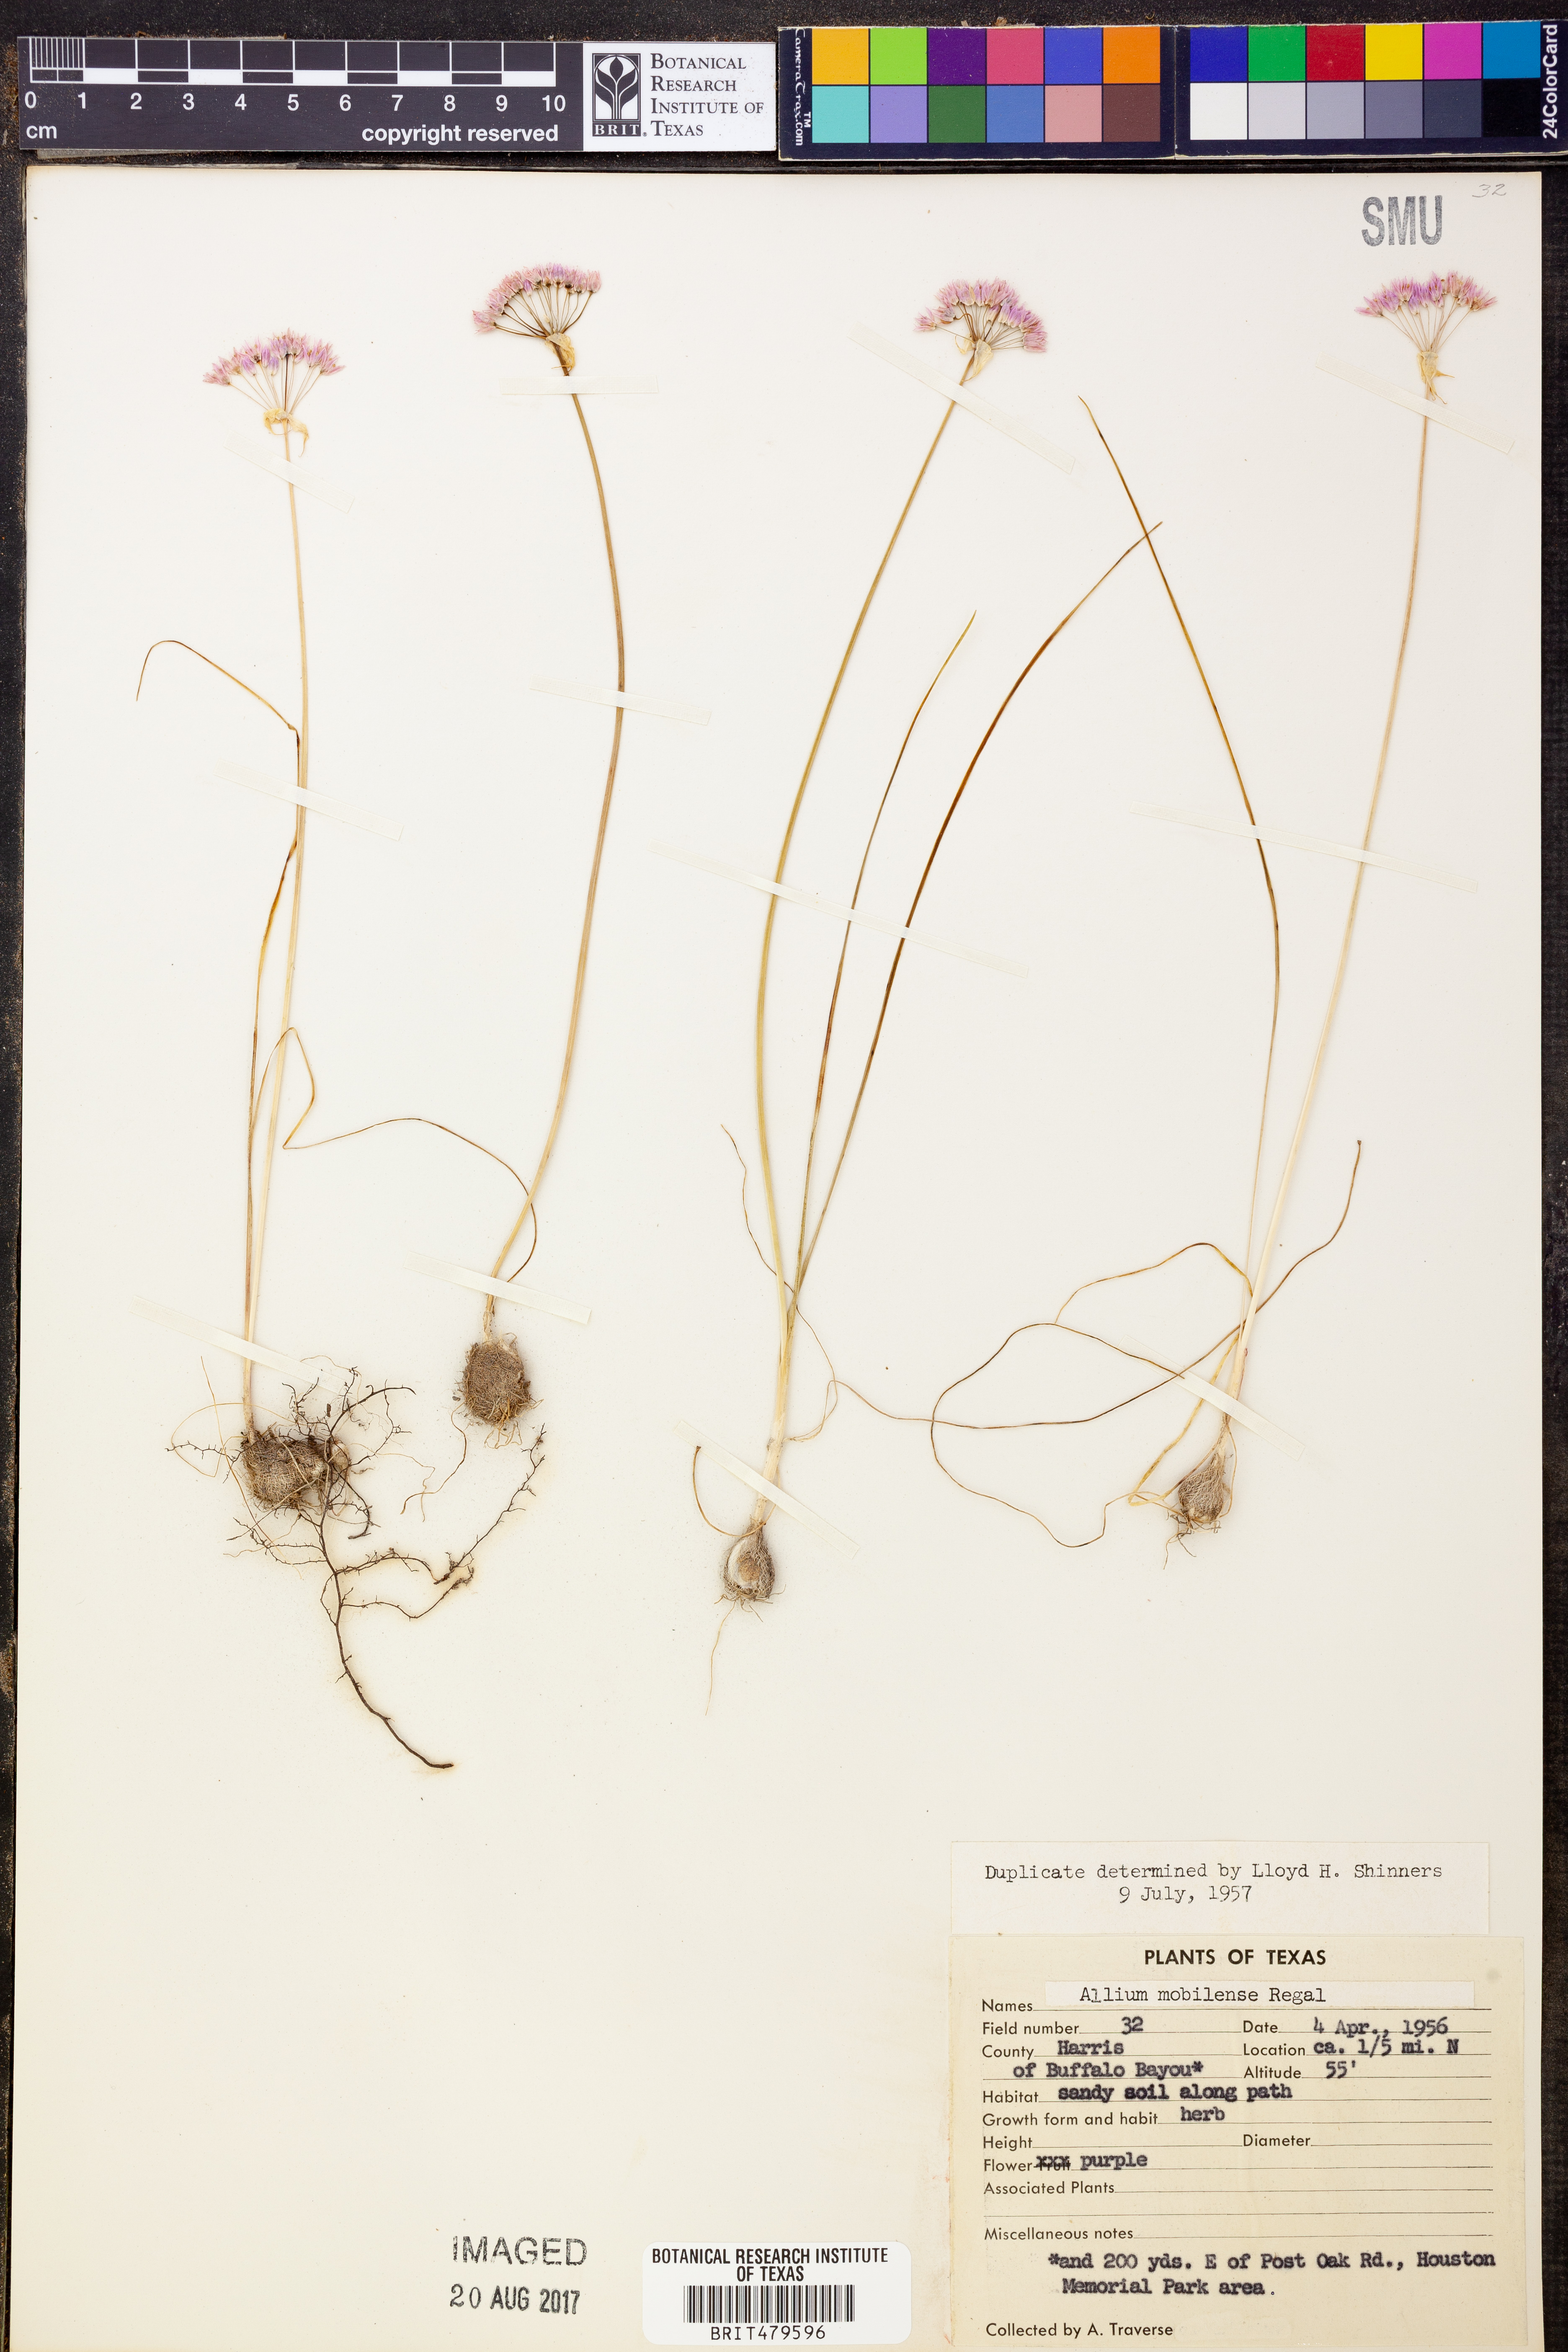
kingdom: Plantae
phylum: Tracheophyta
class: Liliopsida
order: Asparagales
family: Amaryllidaceae
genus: Allium
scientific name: Allium canadense
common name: Meadow garlic
